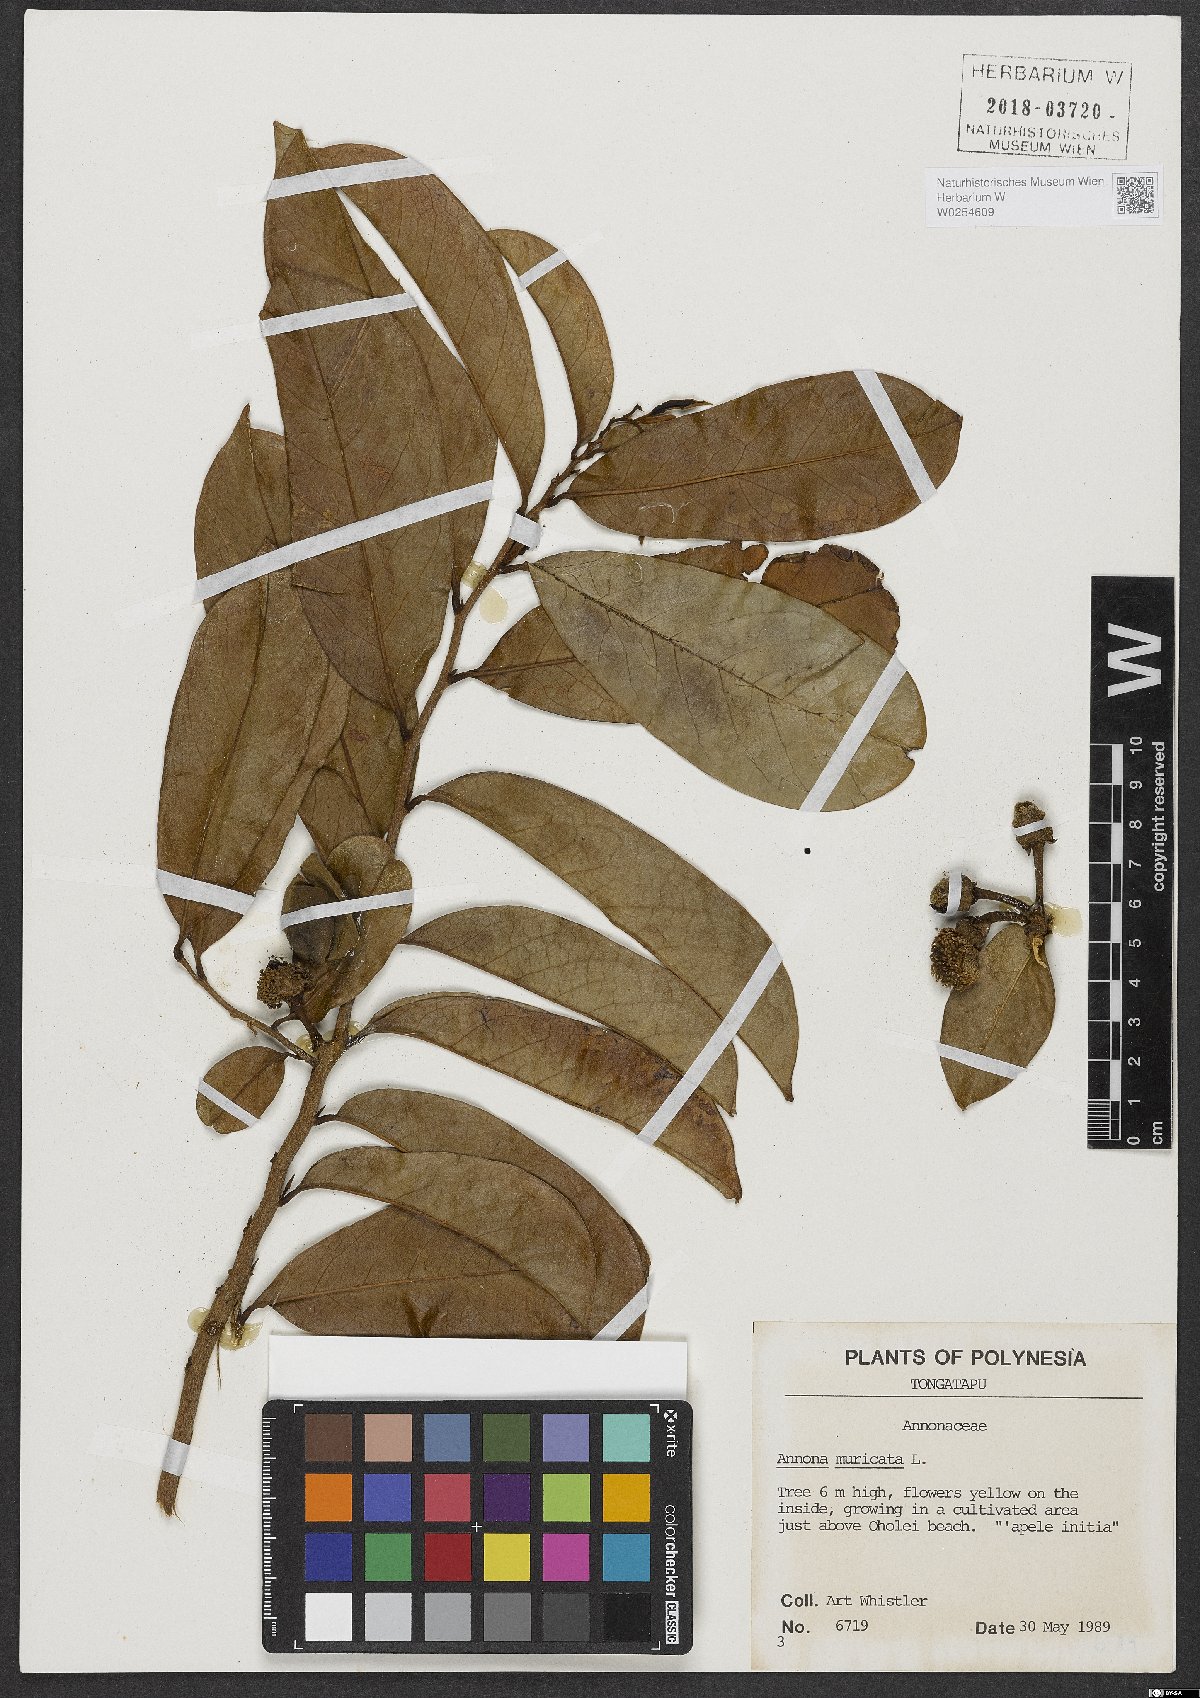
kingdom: Plantae
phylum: Tracheophyta
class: Magnoliopsida
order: Magnoliales
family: Annonaceae
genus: Annona
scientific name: Annona muricata
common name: Soursop
